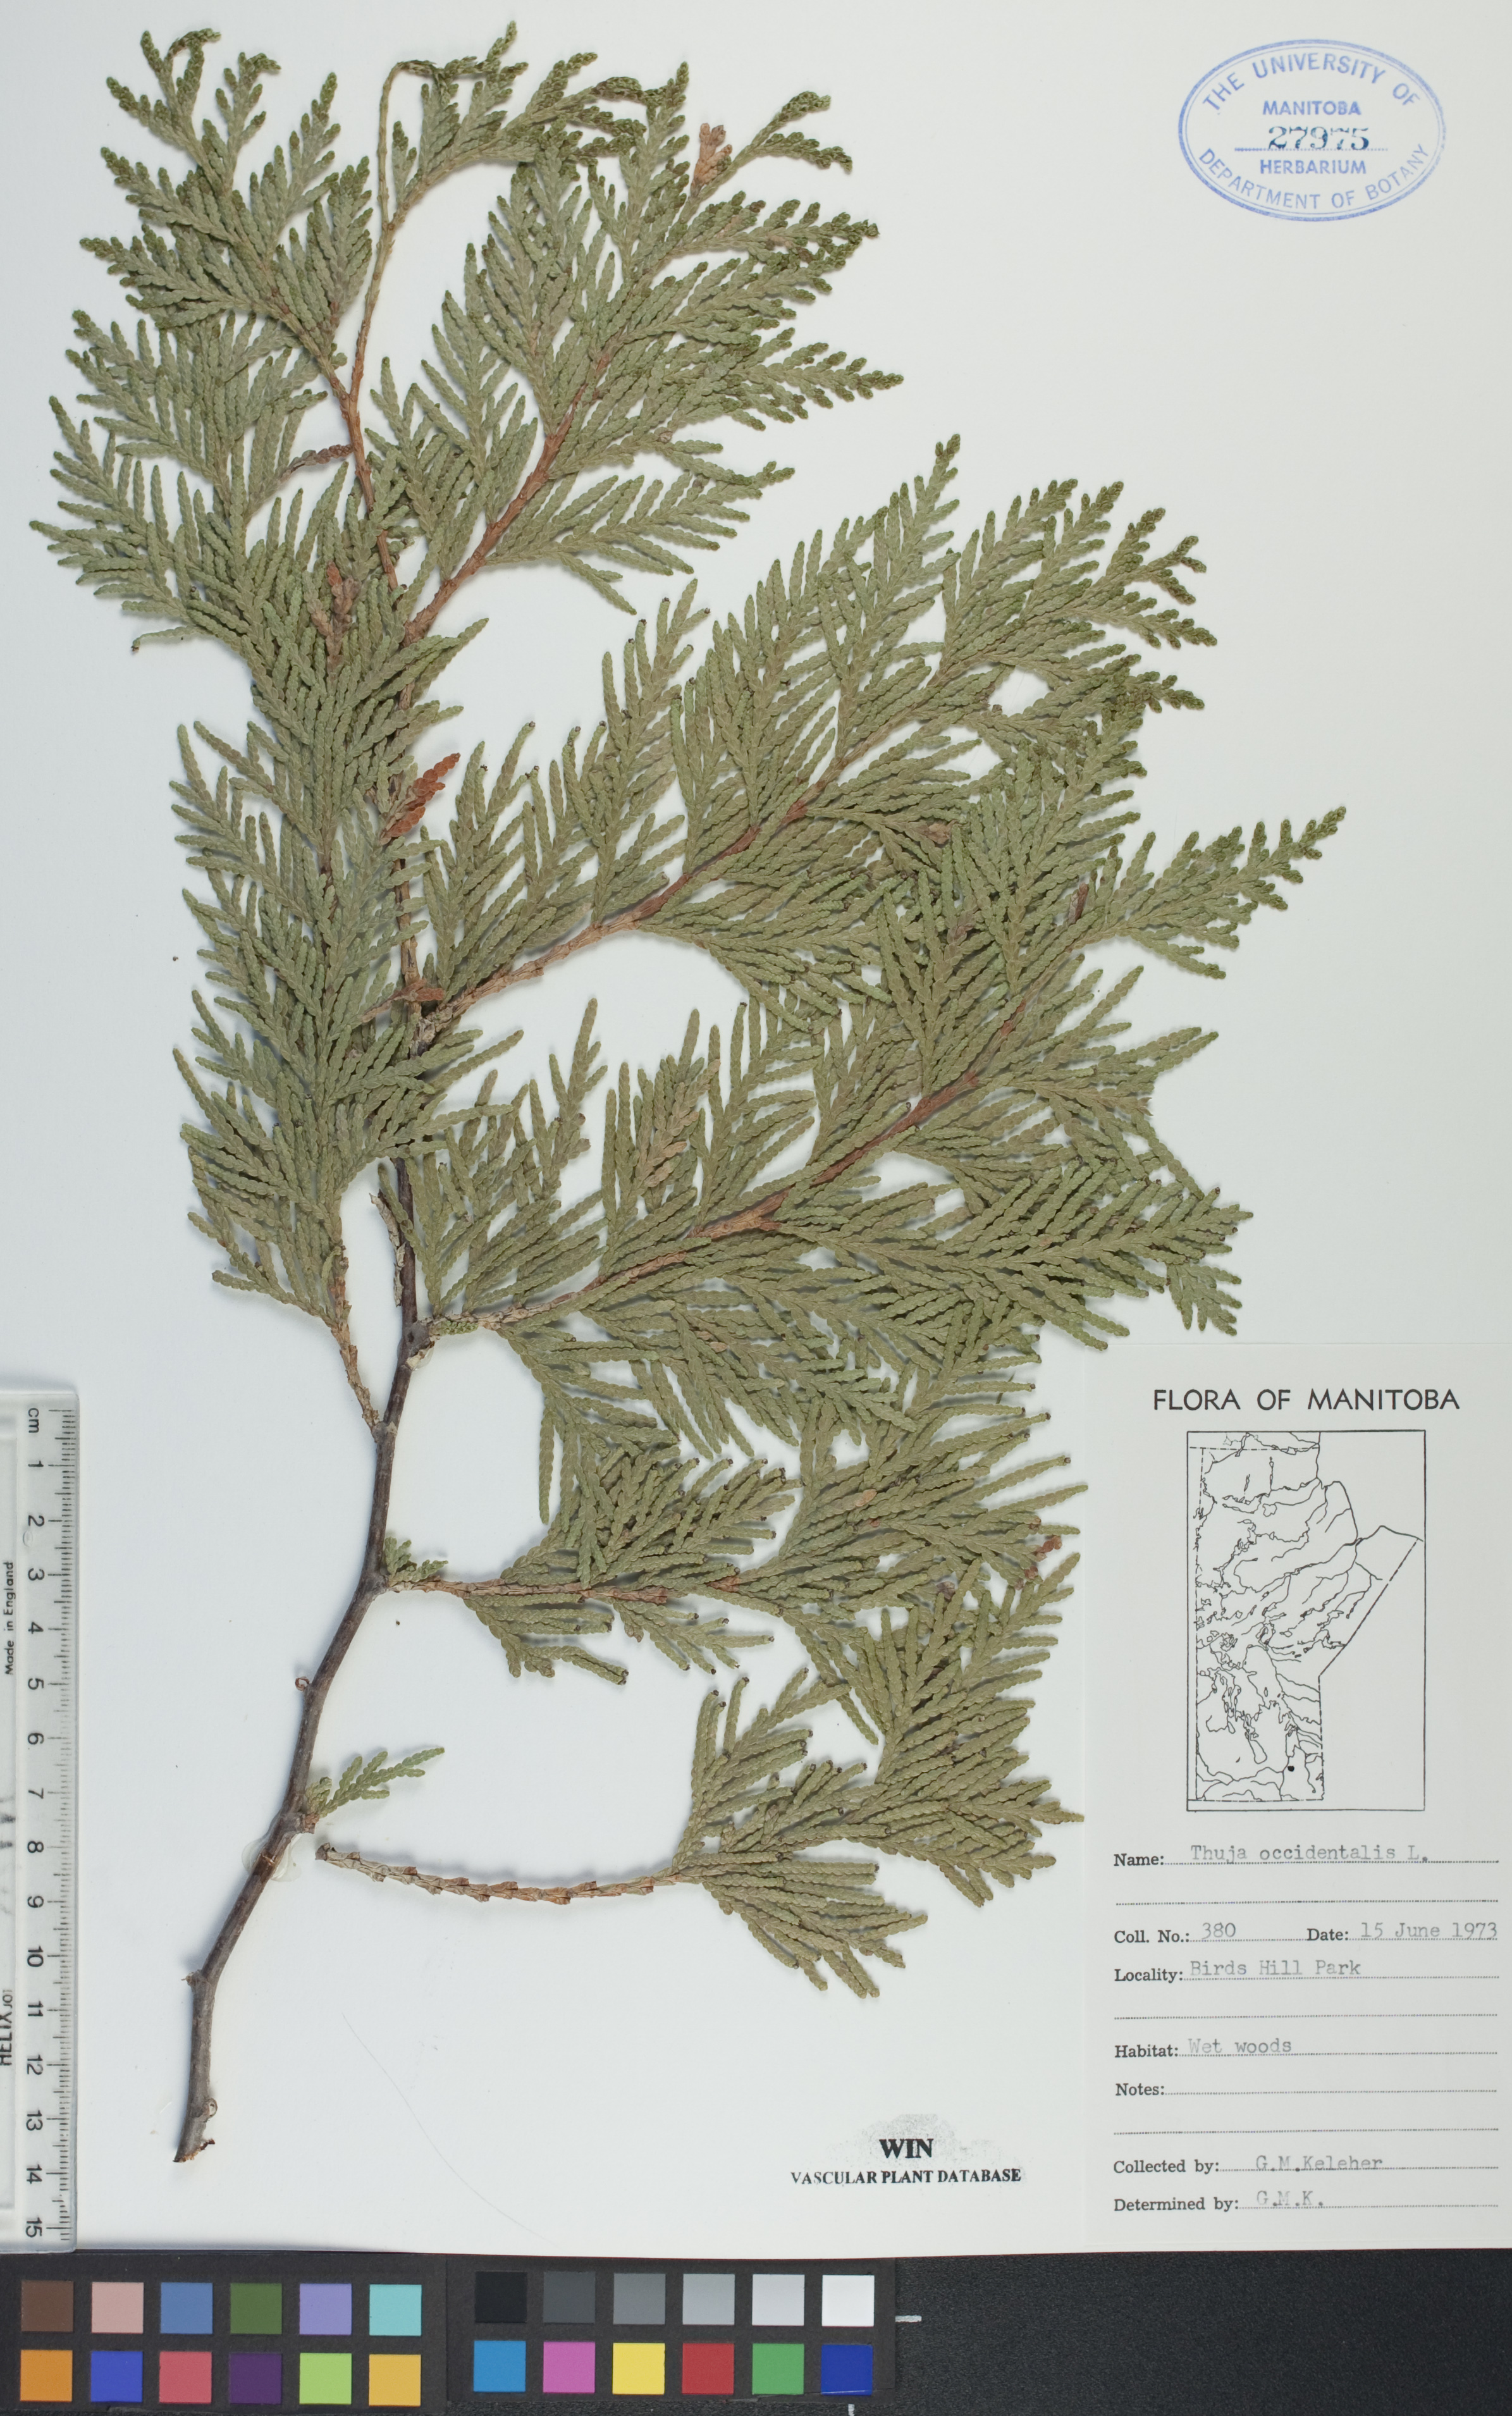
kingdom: Plantae
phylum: Tracheophyta
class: Pinopsida
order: Pinales
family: Cupressaceae
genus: Thuja
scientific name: Thuja occidentalis
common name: Northern white-cedar
